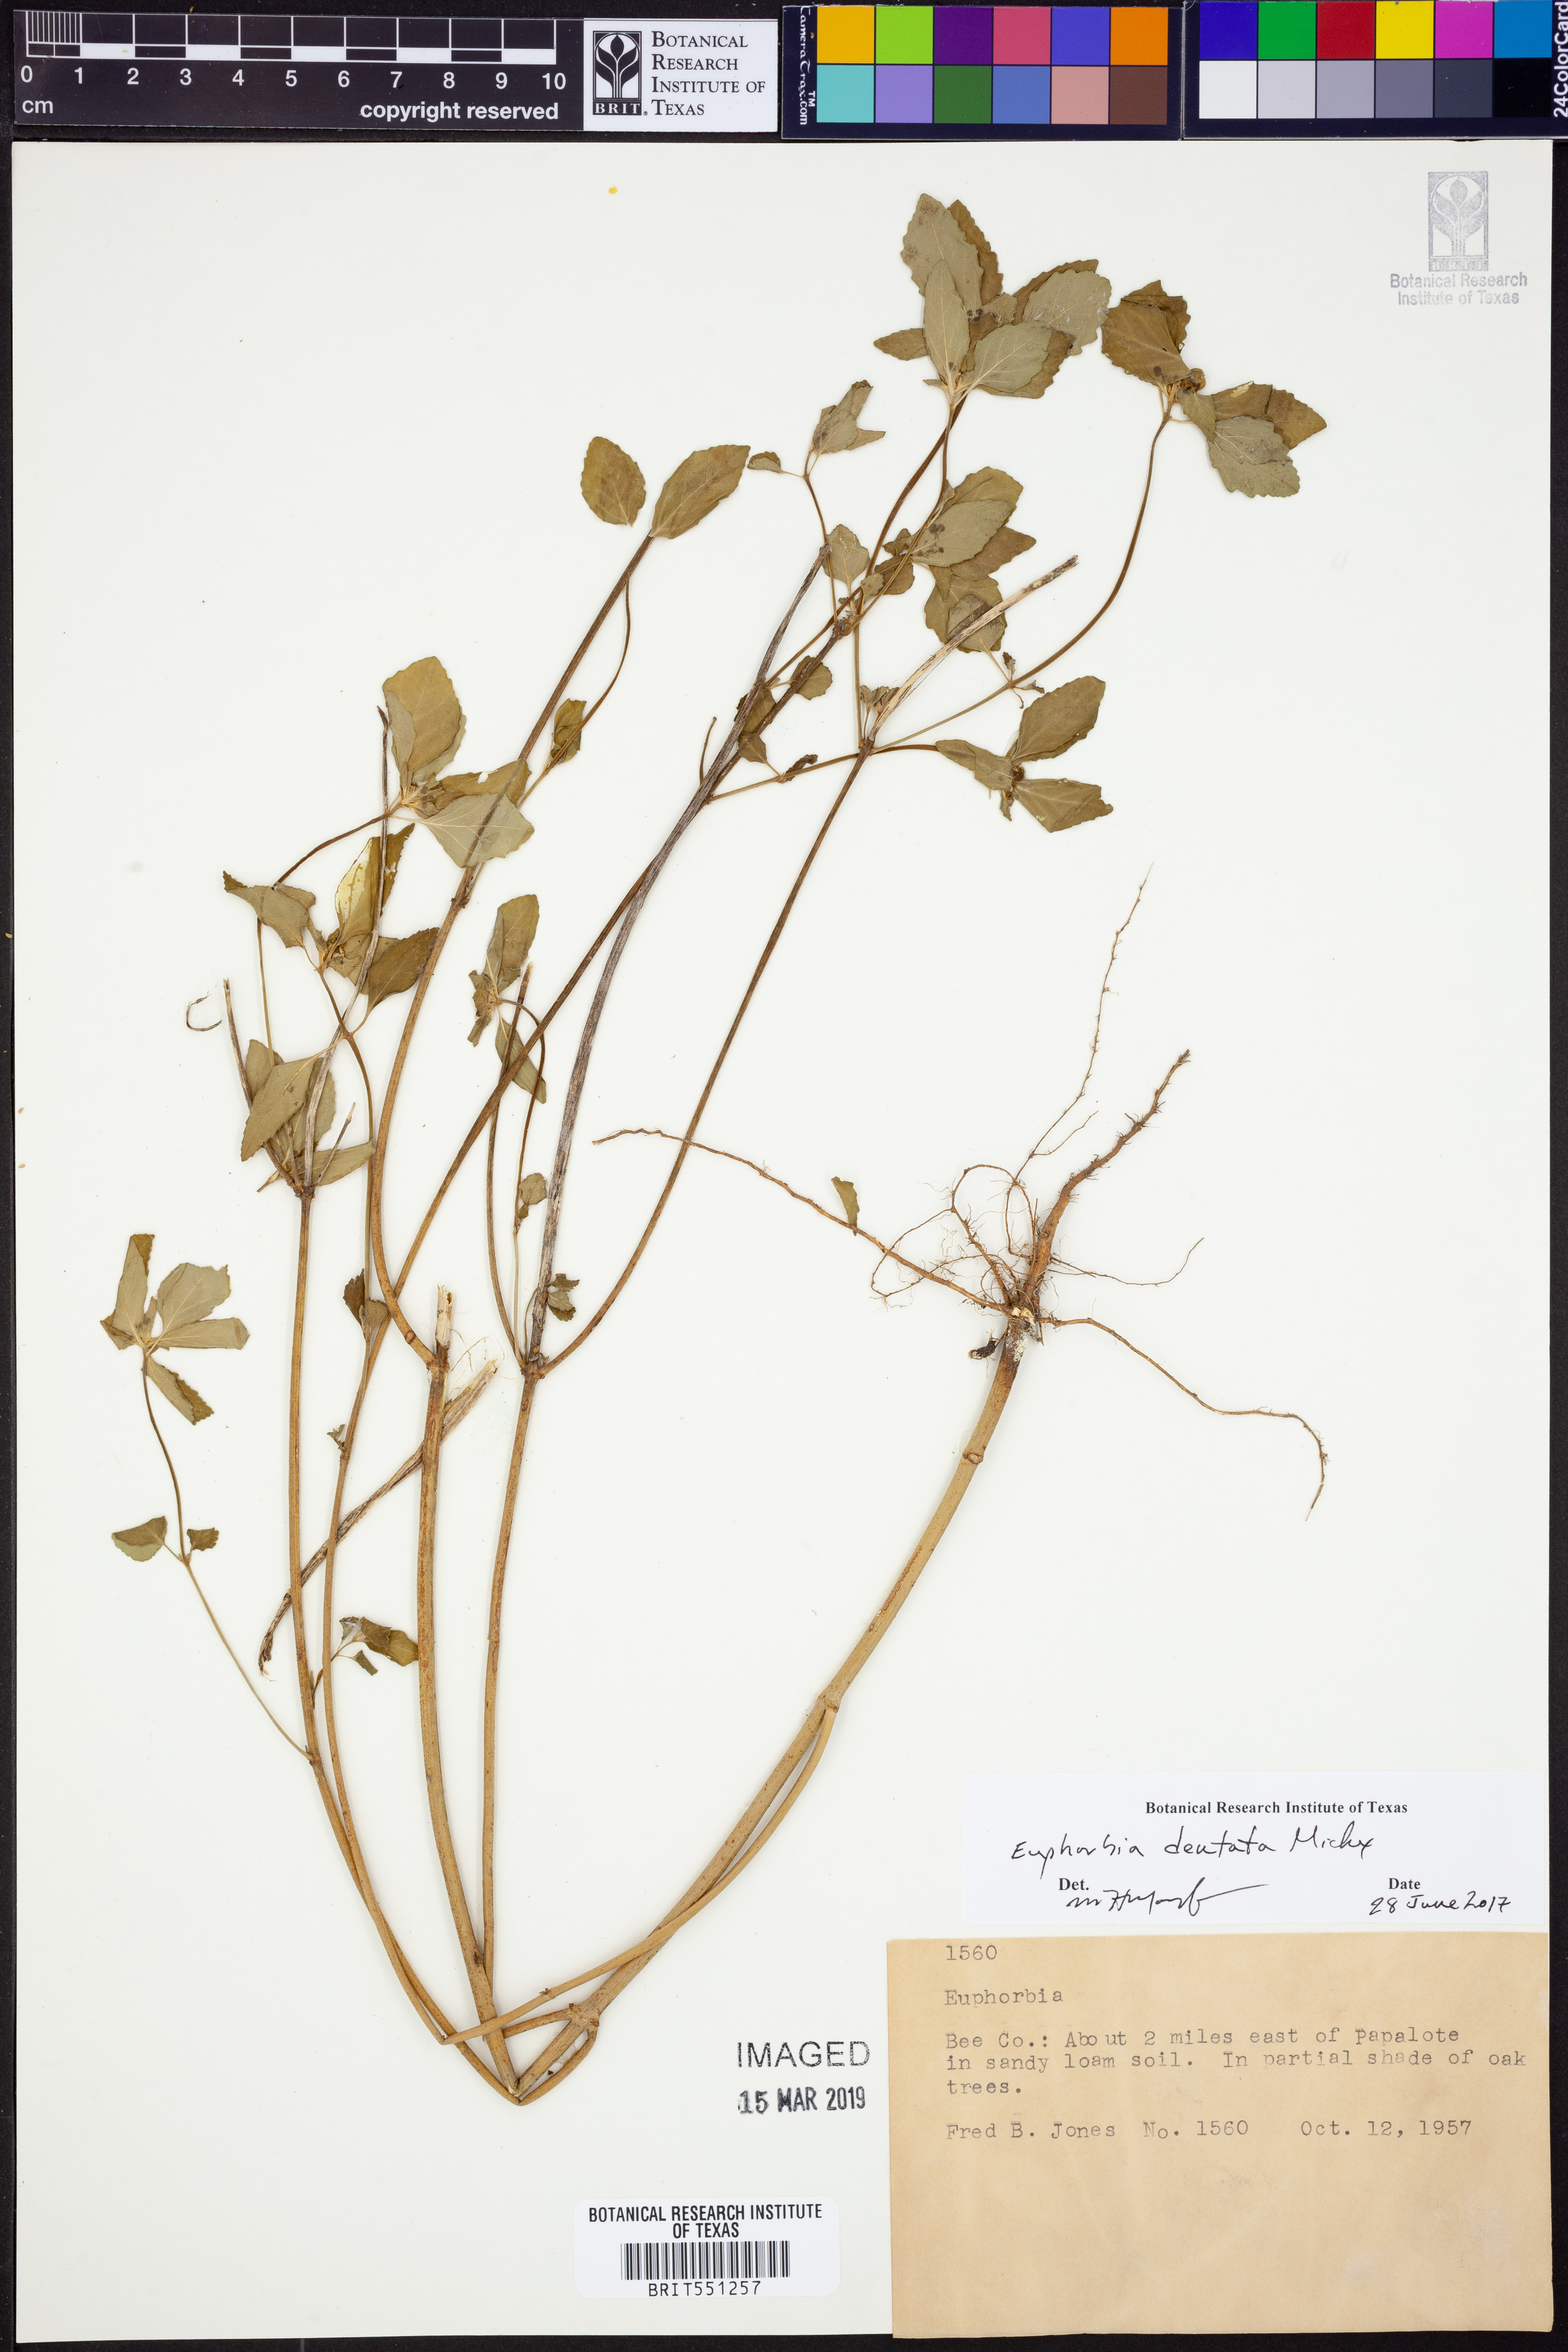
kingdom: Plantae
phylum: Tracheophyta
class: Magnoliopsida
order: Malpighiales
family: Euphorbiaceae
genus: Euphorbia
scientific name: Euphorbia dentata
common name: Dentate spurge
